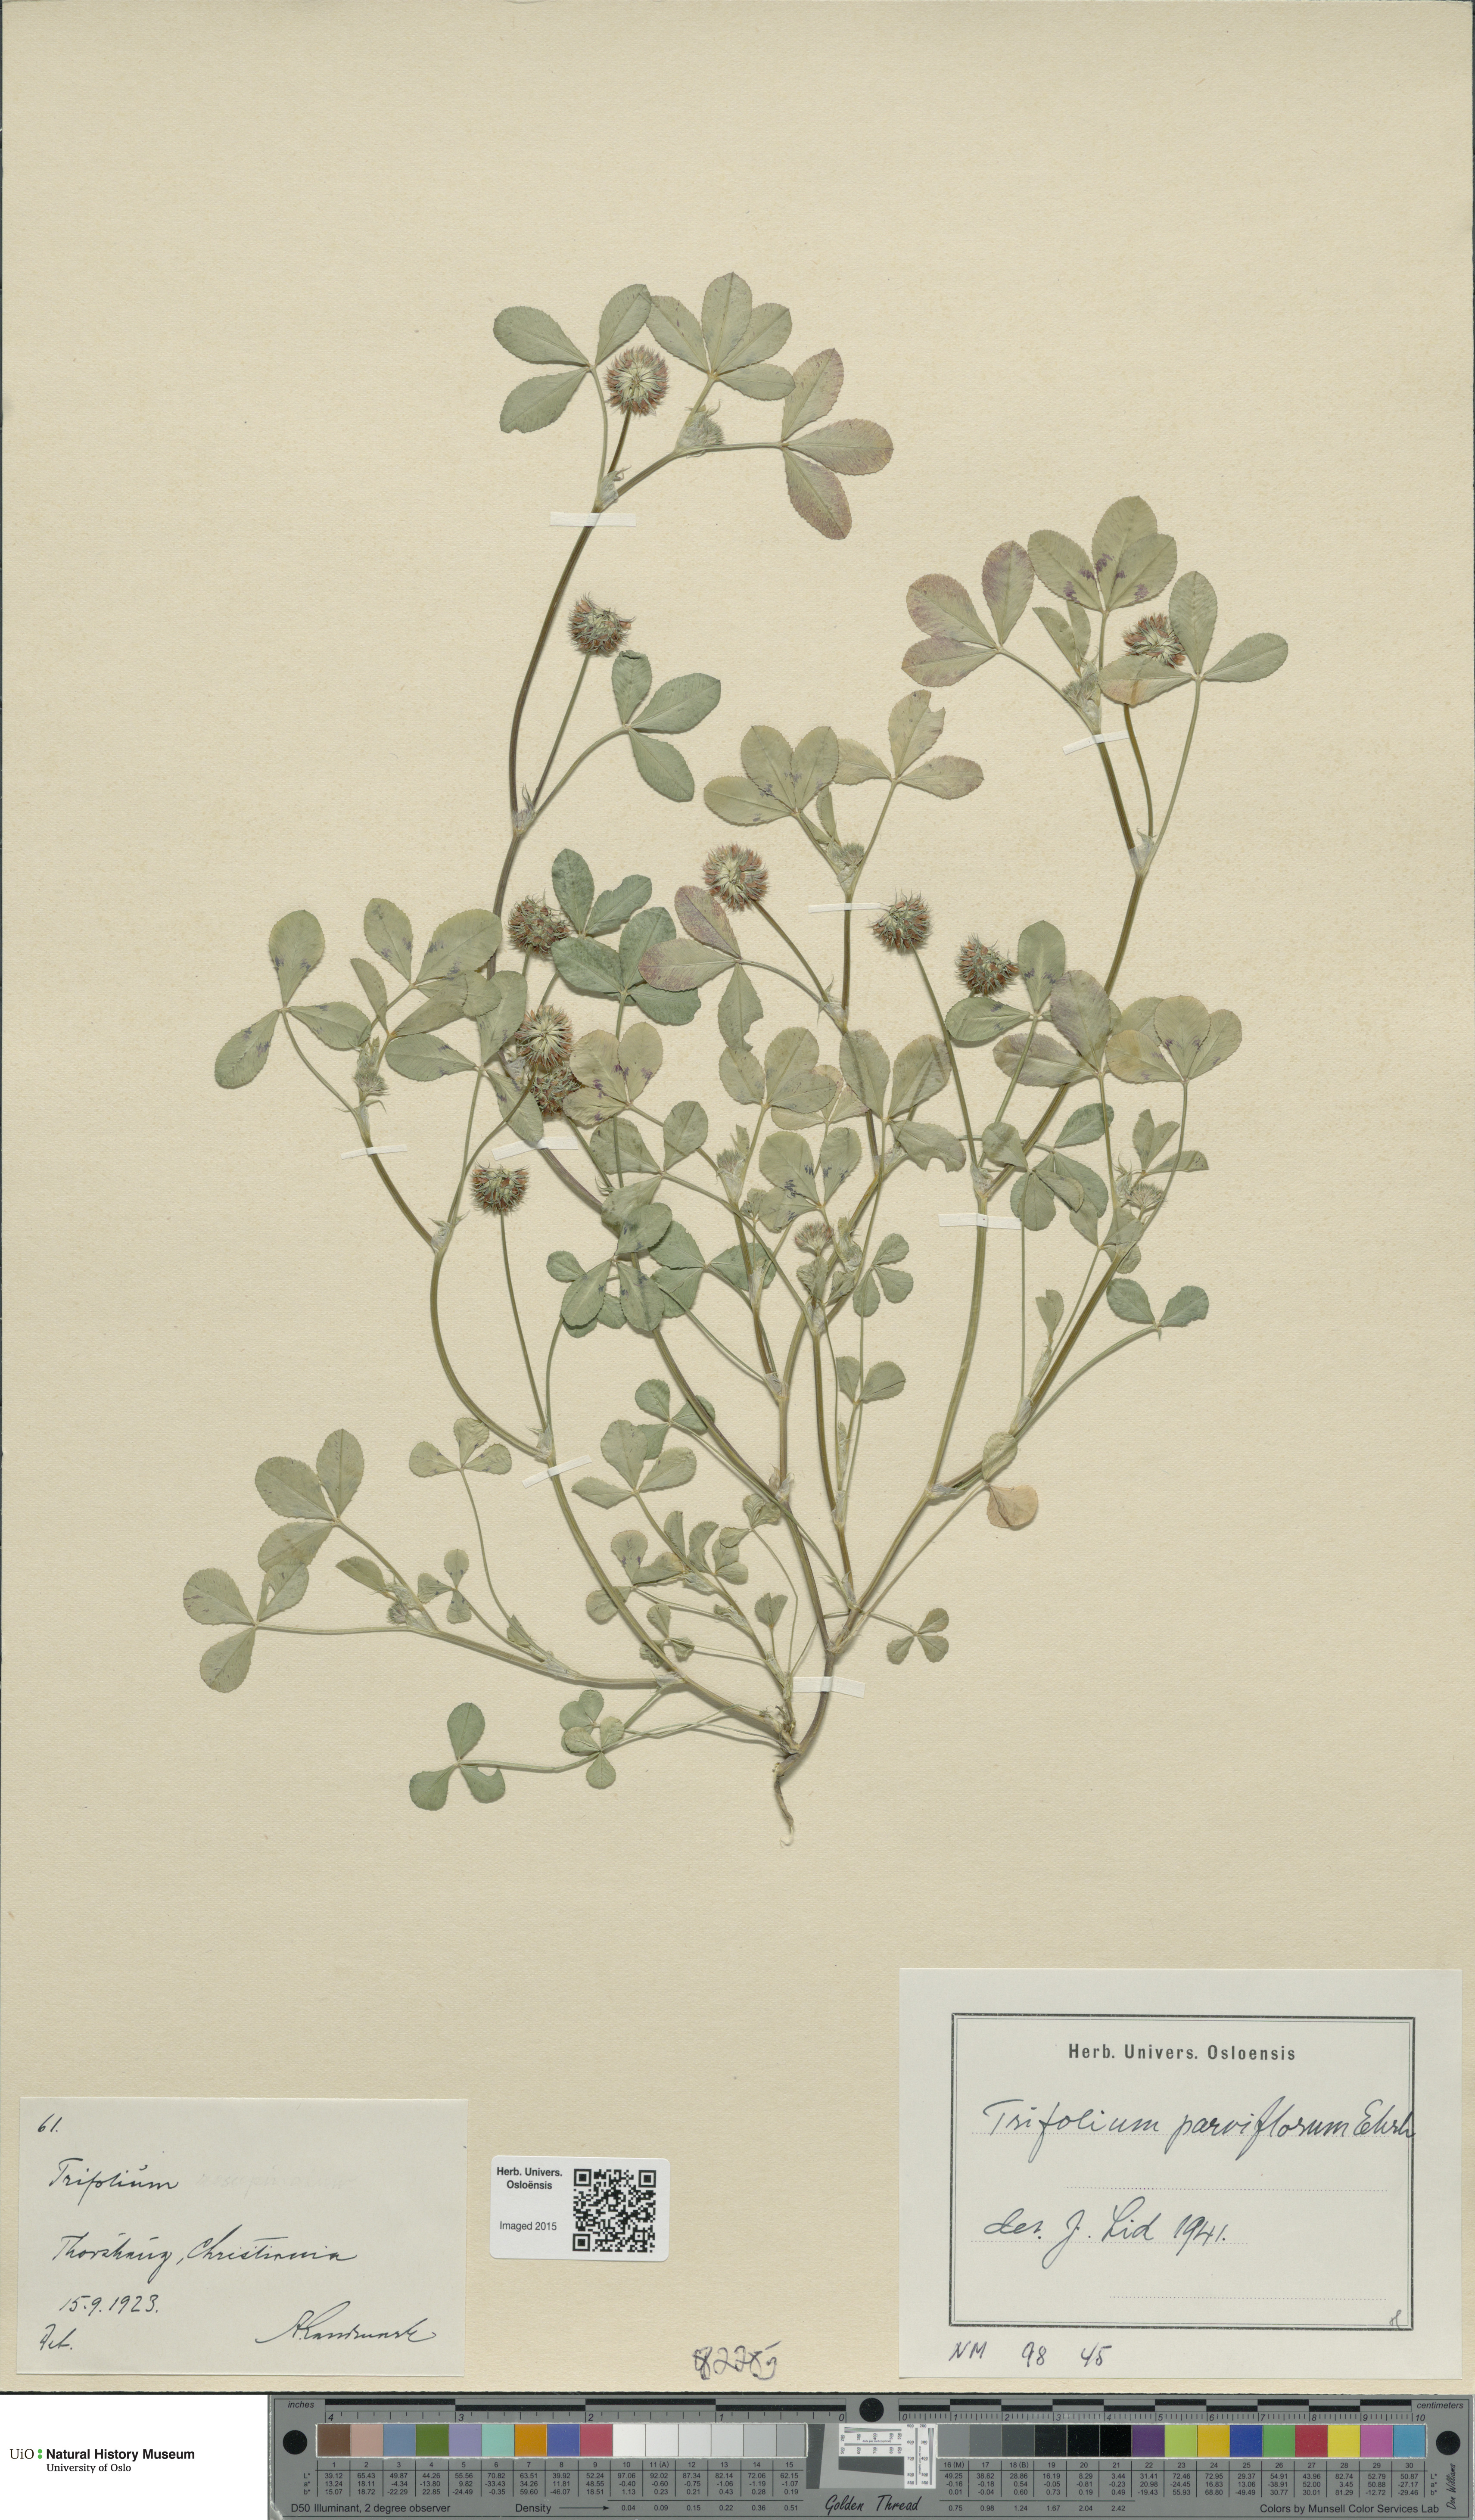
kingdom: Plantae
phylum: Tracheophyta
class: Magnoliopsida
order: Fabales
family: Fabaceae
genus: Trifolium
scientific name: Trifolium retusum
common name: Teasel clover
